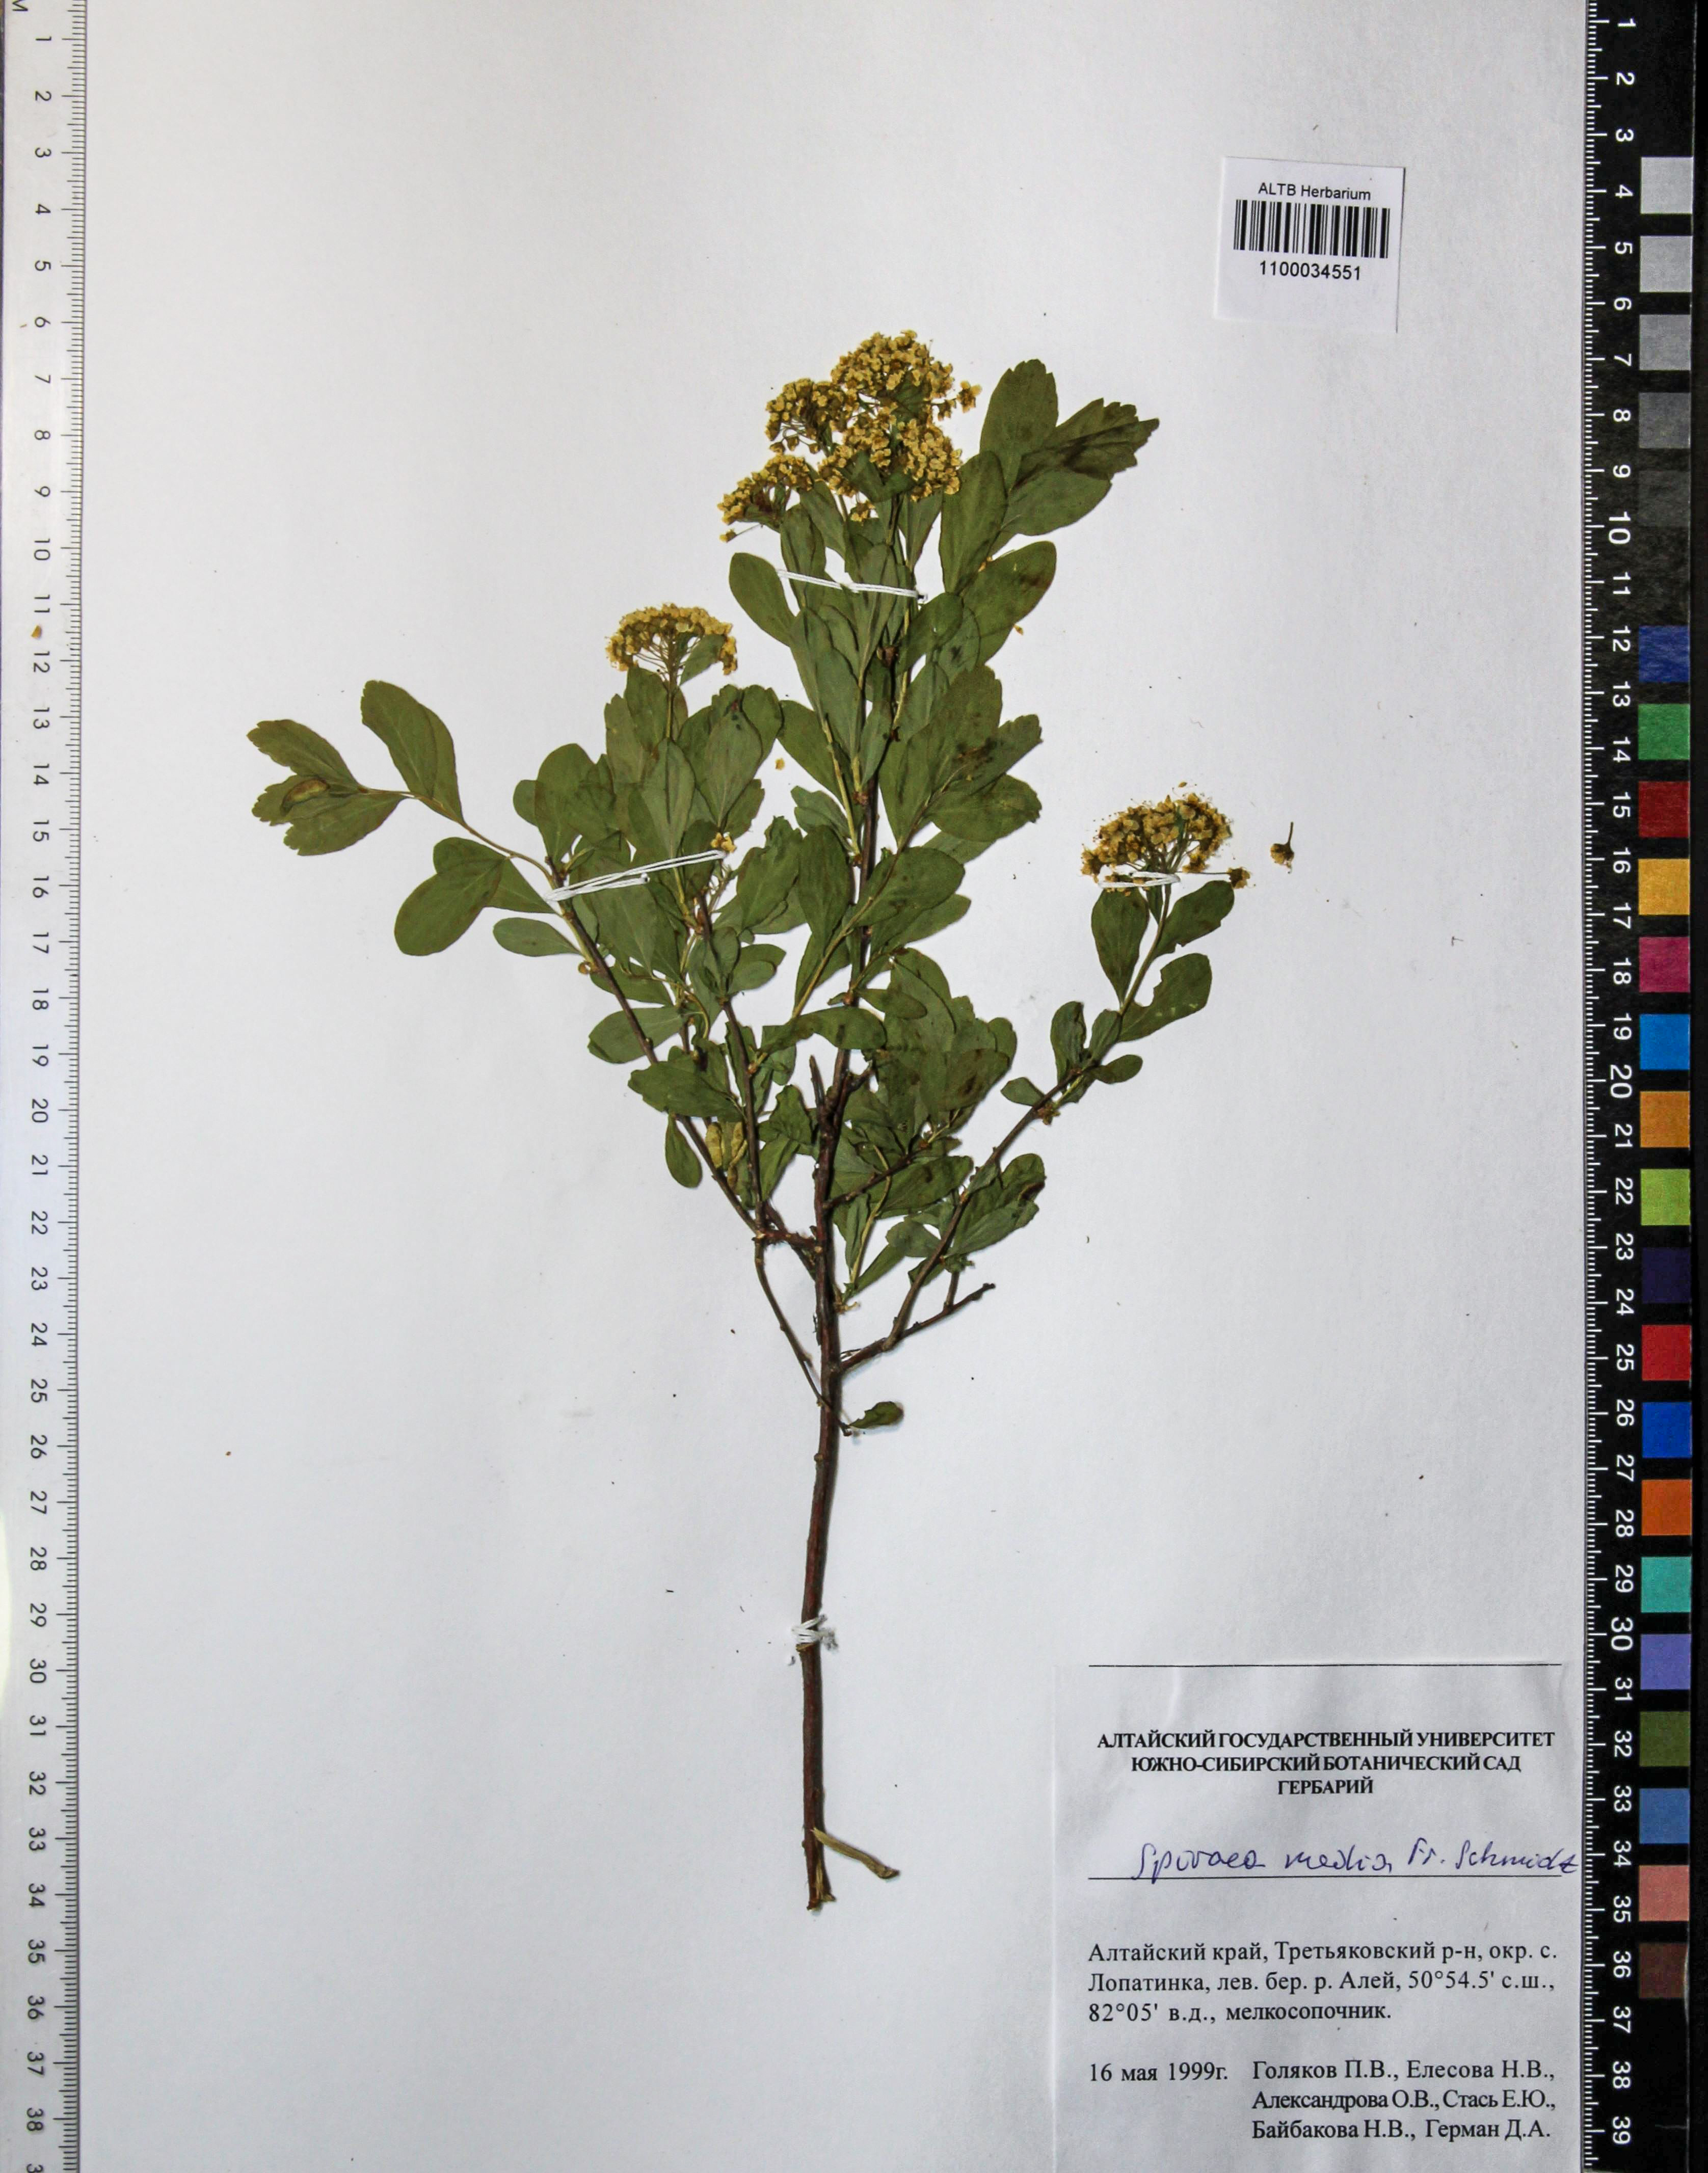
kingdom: Plantae
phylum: Tracheophyta
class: Magnoliopsida
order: Rosales
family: Rosaceae
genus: Spiraea
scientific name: Spiraea media
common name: Russian spiraea
